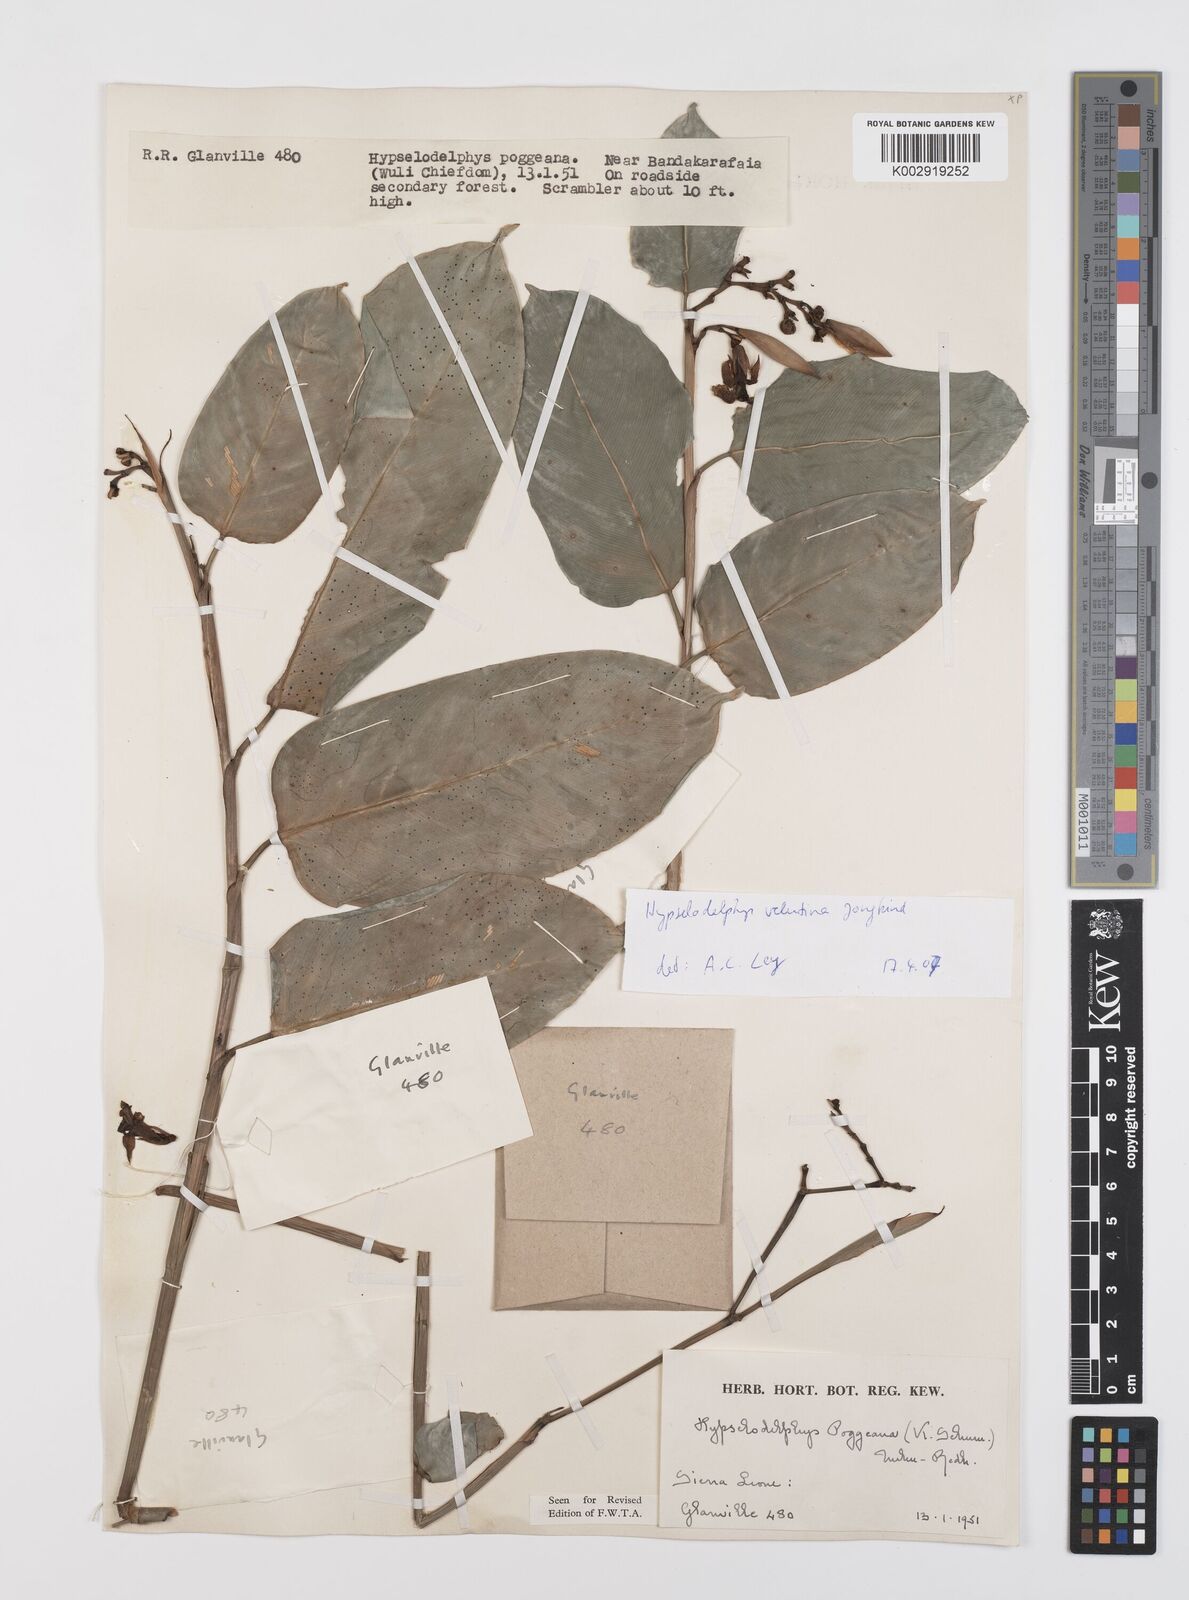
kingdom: Plantae
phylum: Tracheophyta
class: Liliopsida
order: Zingiberales
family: Marantaceae
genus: Hypselodelphys
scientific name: Hypselodelphys velutina
